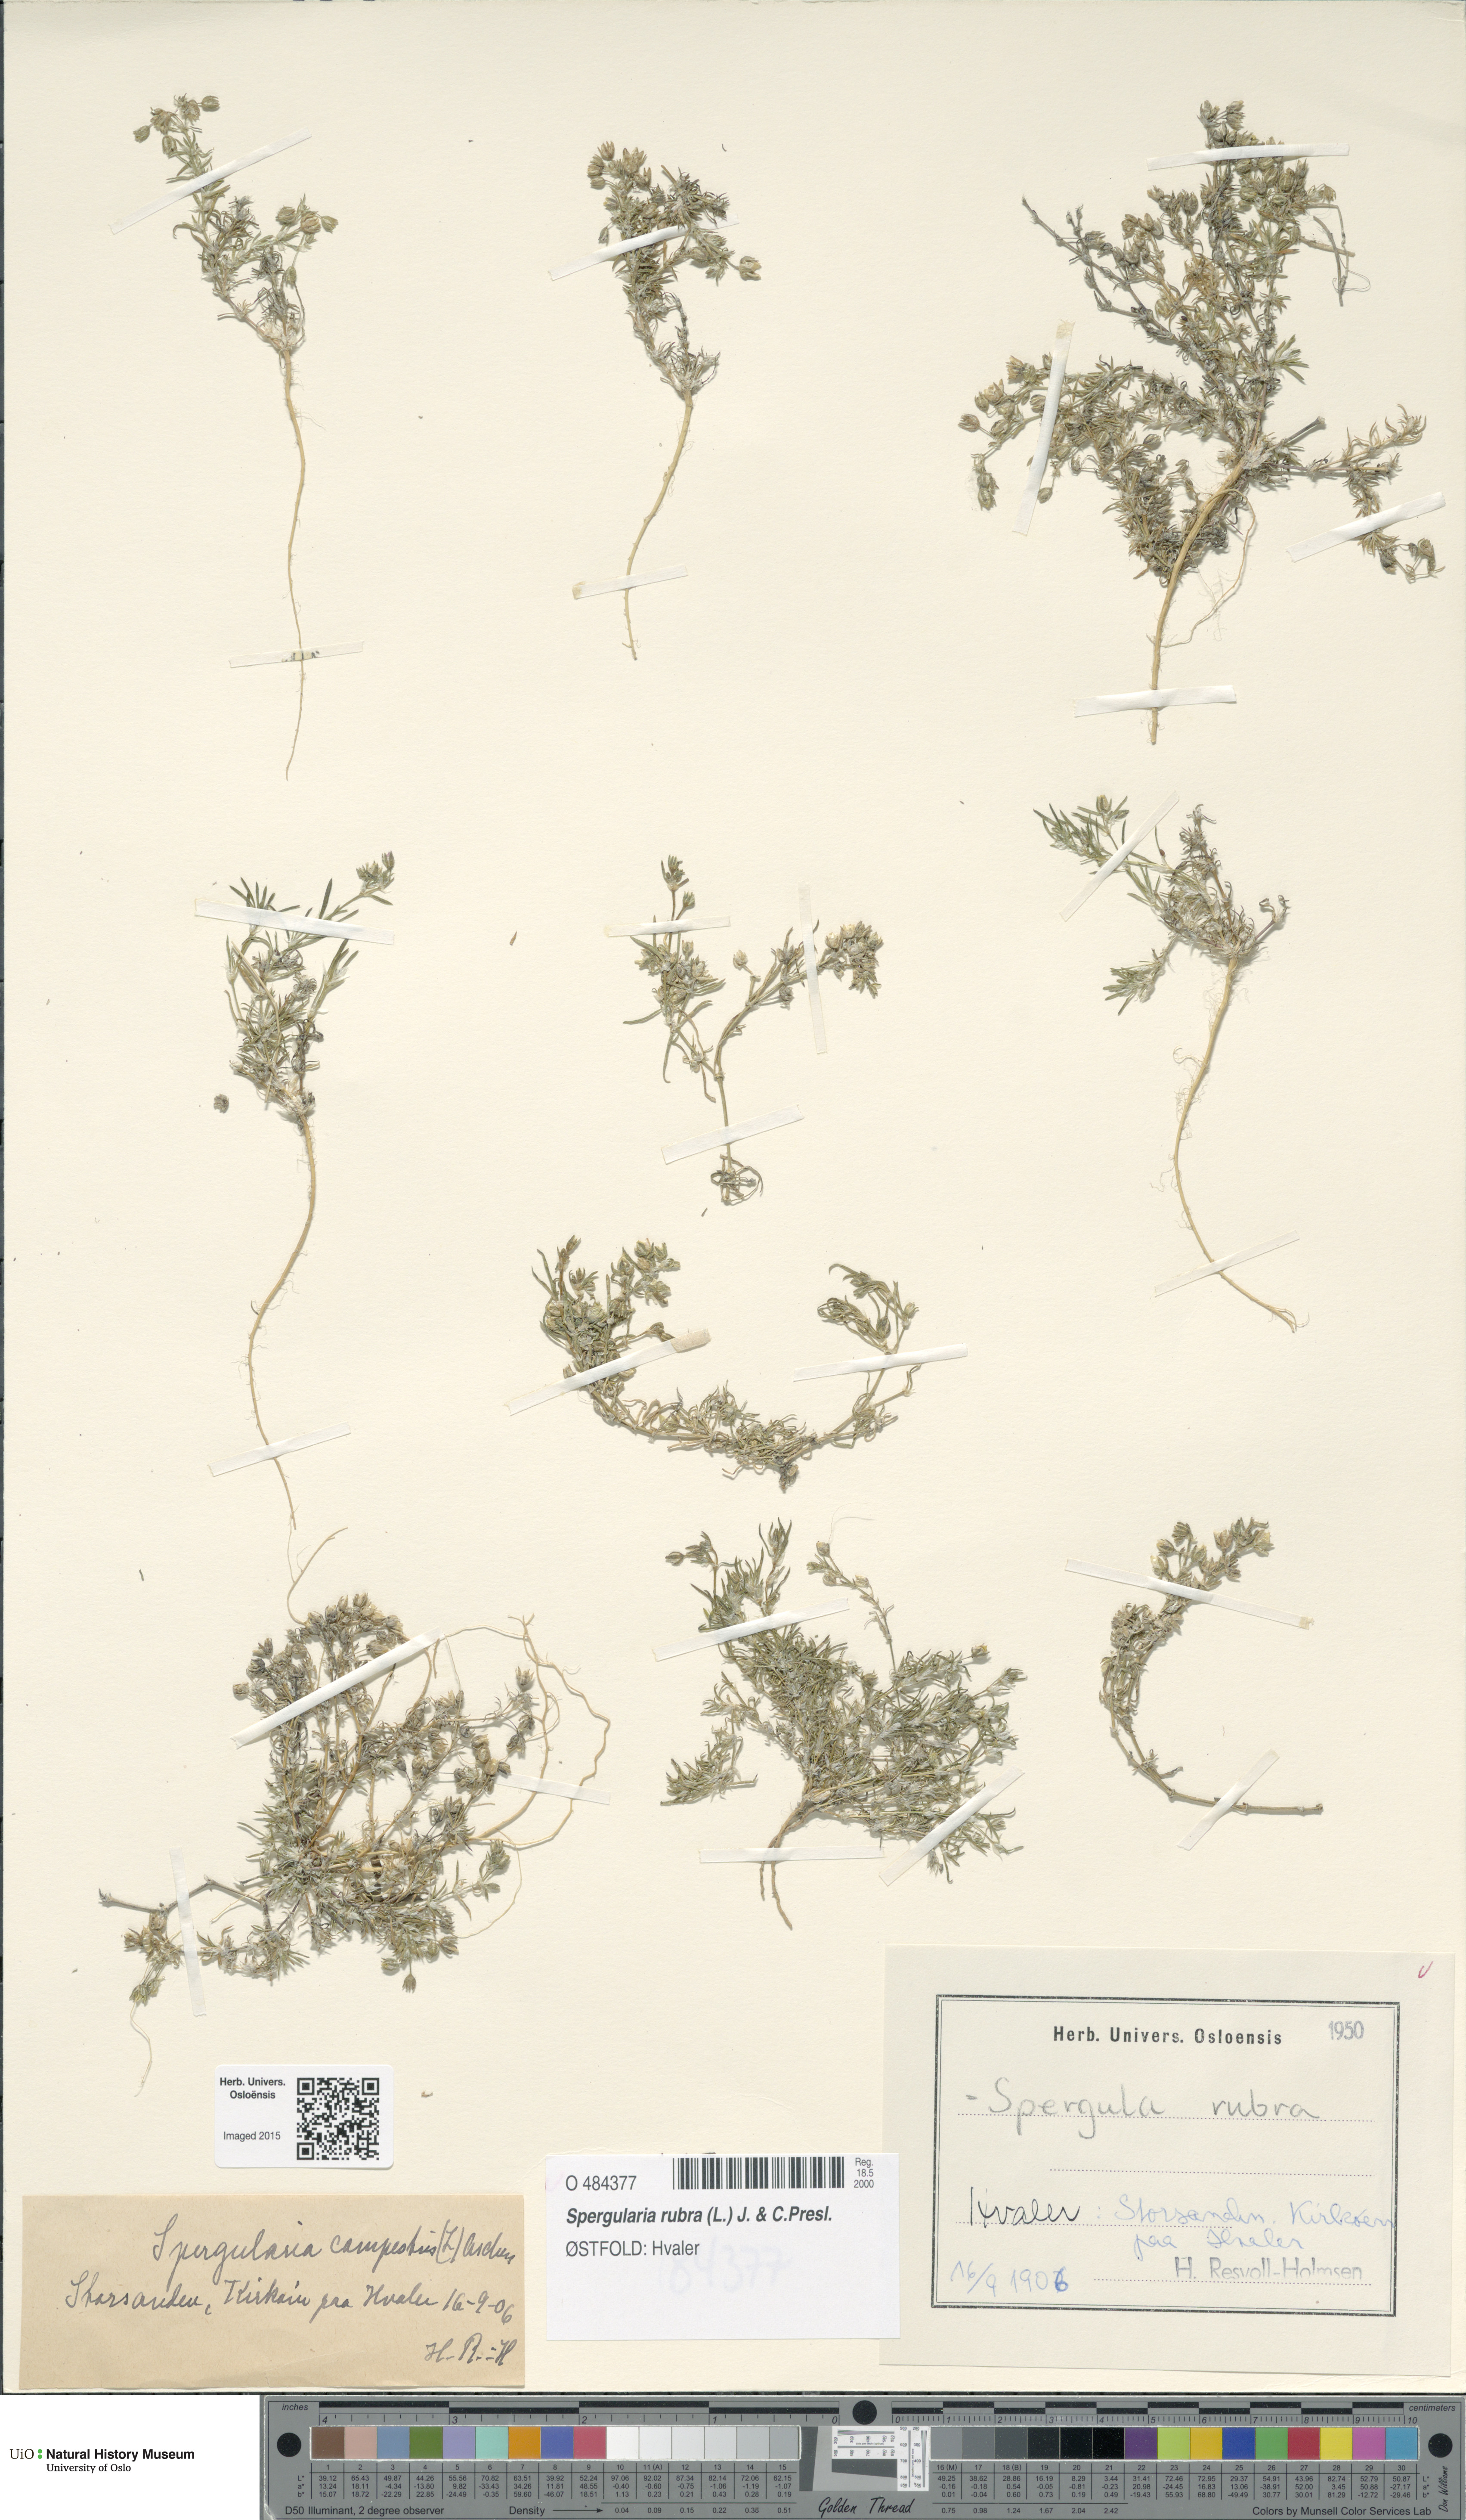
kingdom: Plantae
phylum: Tracheophyta
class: Magnoliopsida
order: Caryophyllales
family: Caryophyllaceae
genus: Spergularia
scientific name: Spergularia rubra
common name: Red sand-spurrey
